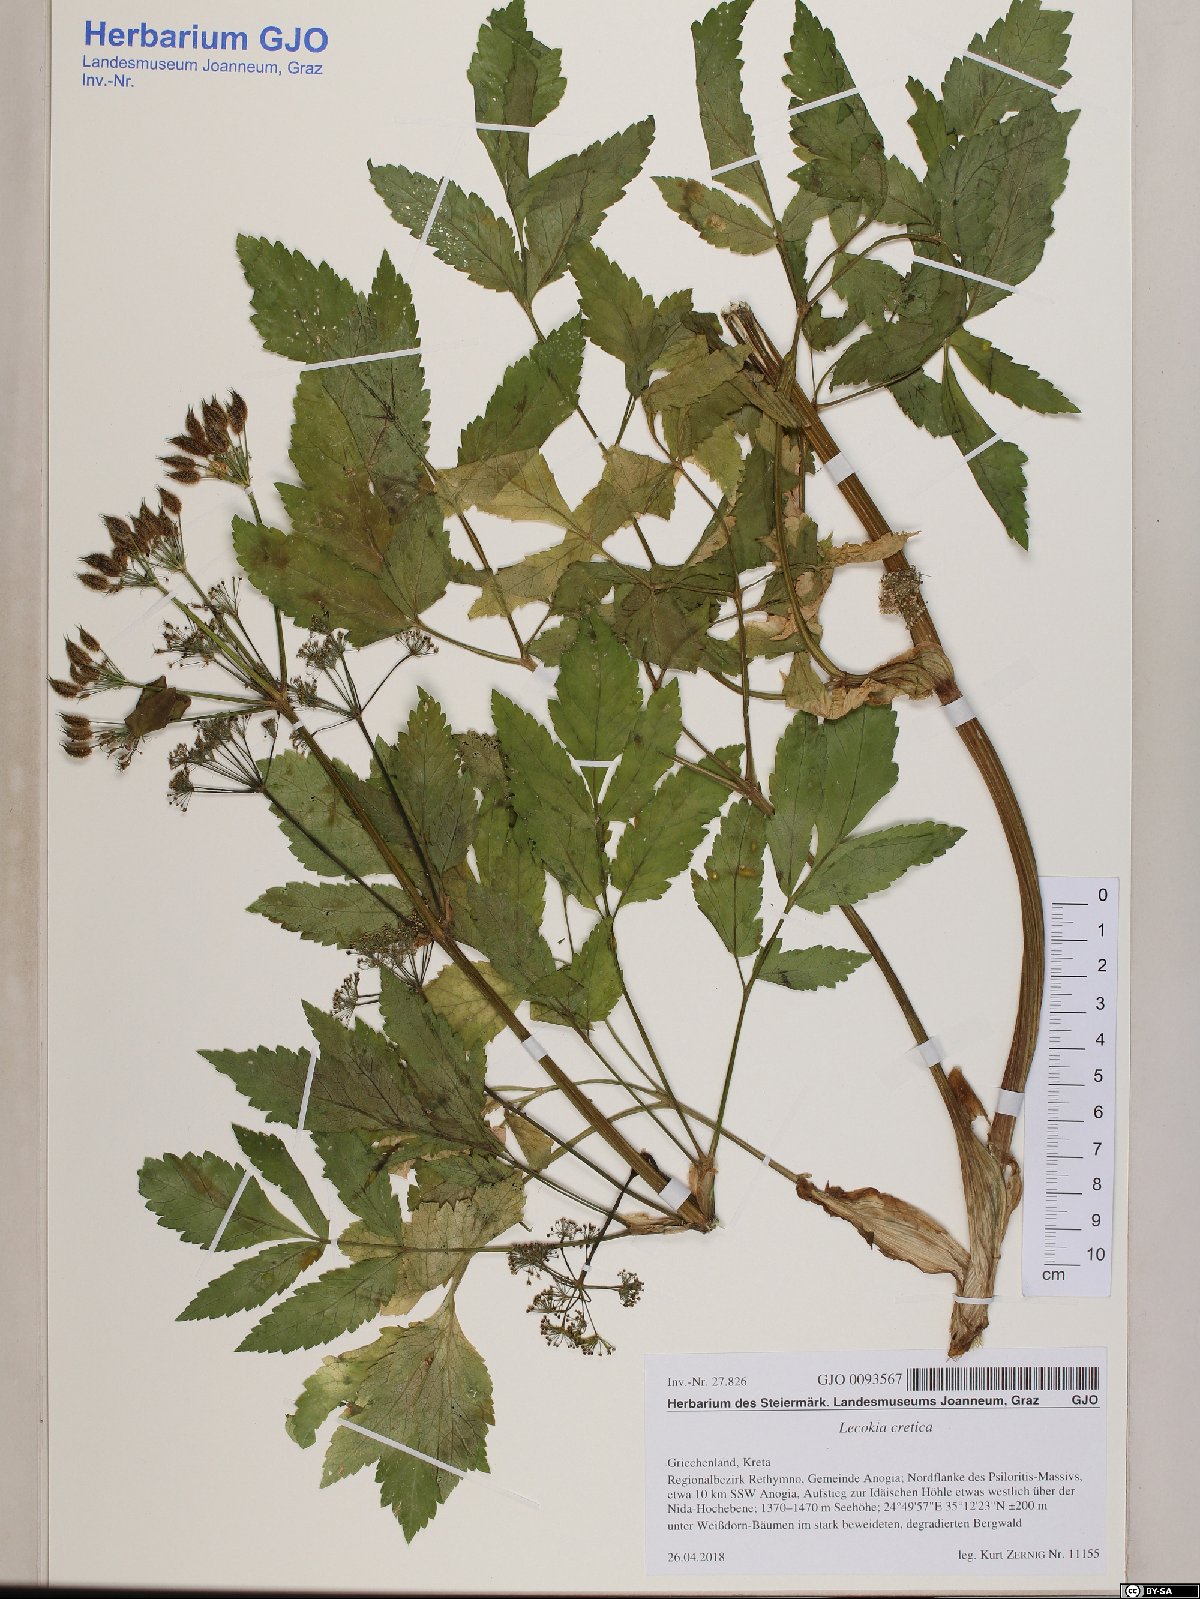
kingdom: Plantae
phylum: Tracheophyta
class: Magnoliopsida
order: Apiales
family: Apiaceae
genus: Lecokia
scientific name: Lecokia cretica
